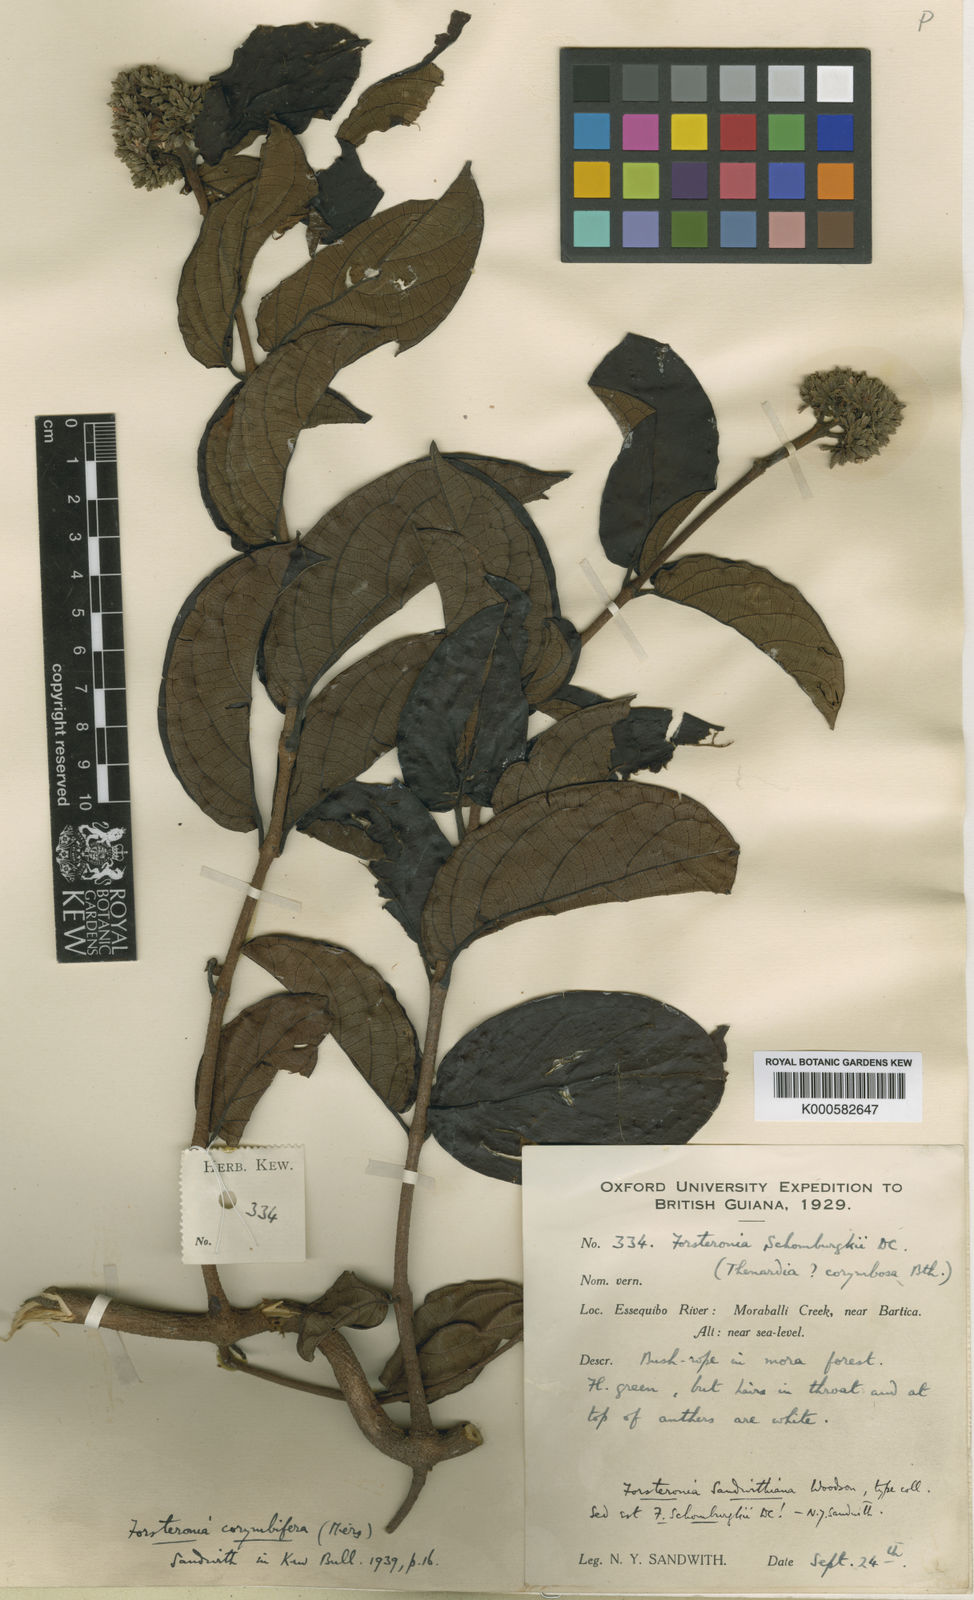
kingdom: Plantae
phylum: Tracheophyta
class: Magnoliopsida
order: Gentianales
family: Apocynaceae
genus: Forsteronia
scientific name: Forsteronia schomburgkii
